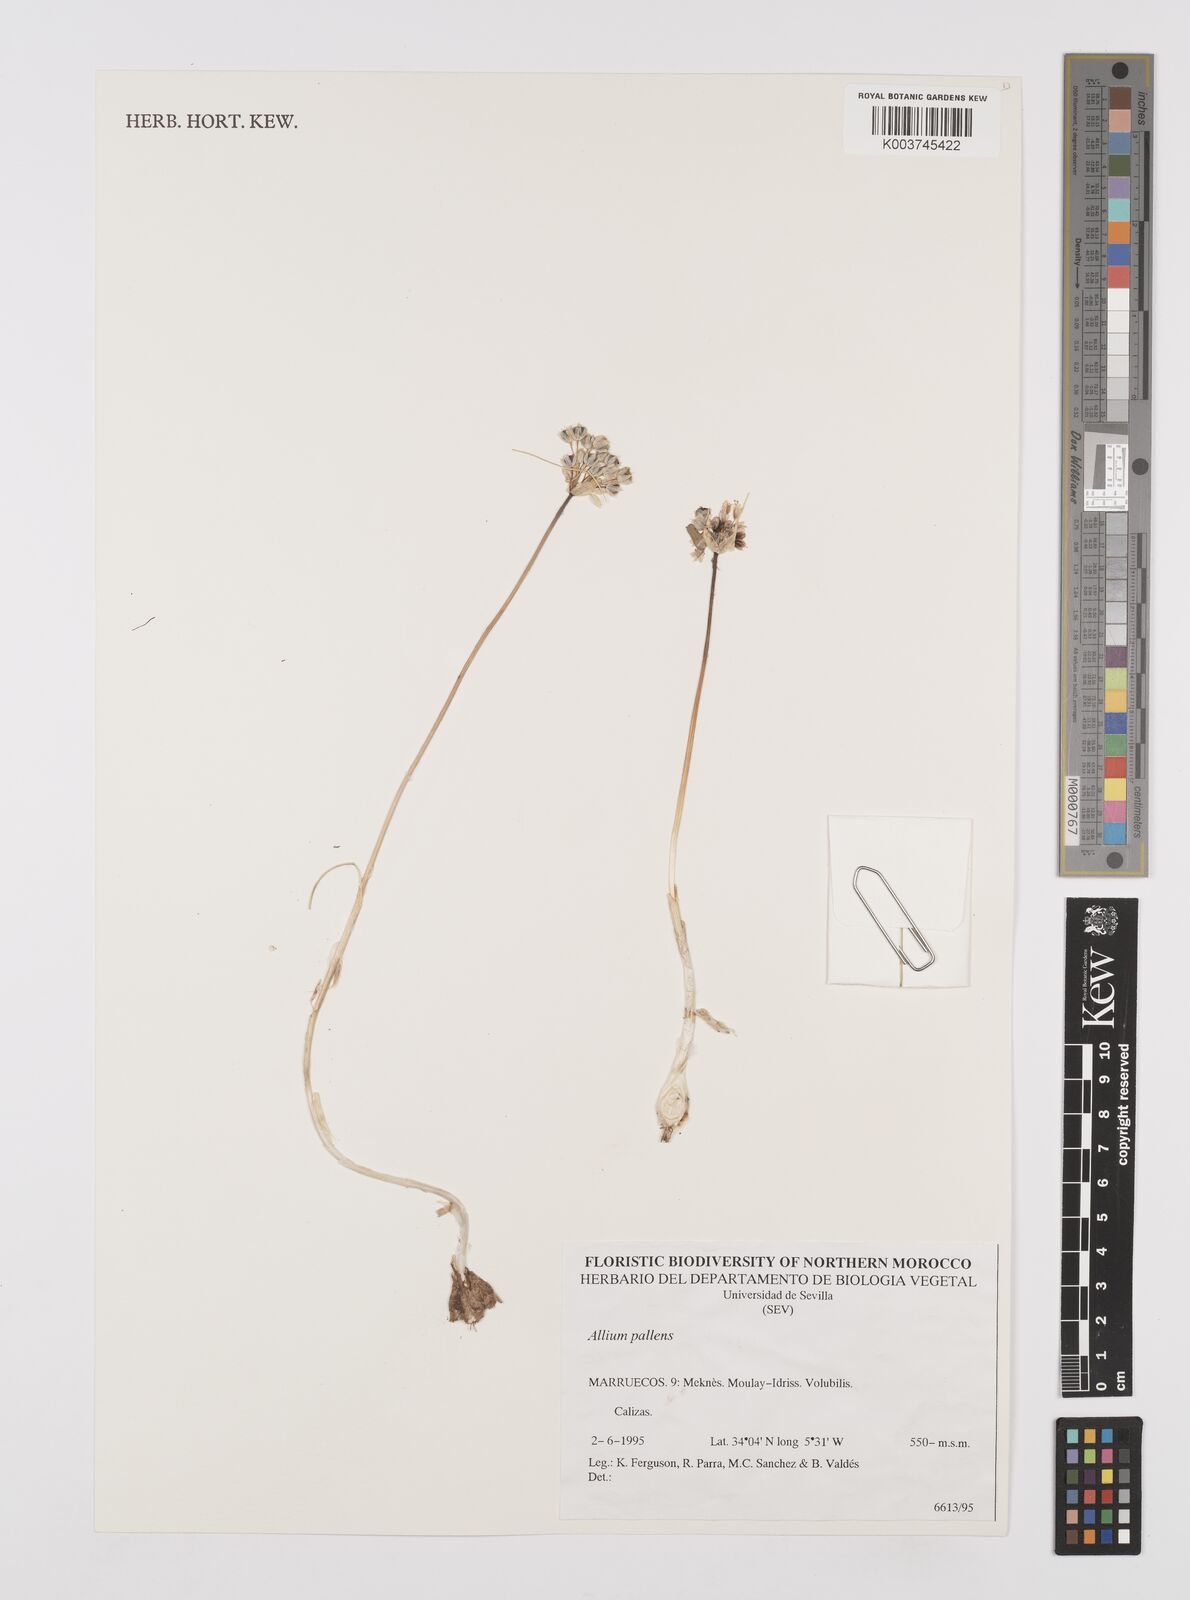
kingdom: Plantae
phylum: Tracheophyta
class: Liliopsida
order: Asparagales
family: Amaryllidaceae
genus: Allium
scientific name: Allium paniculatum
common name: Pale garlic
